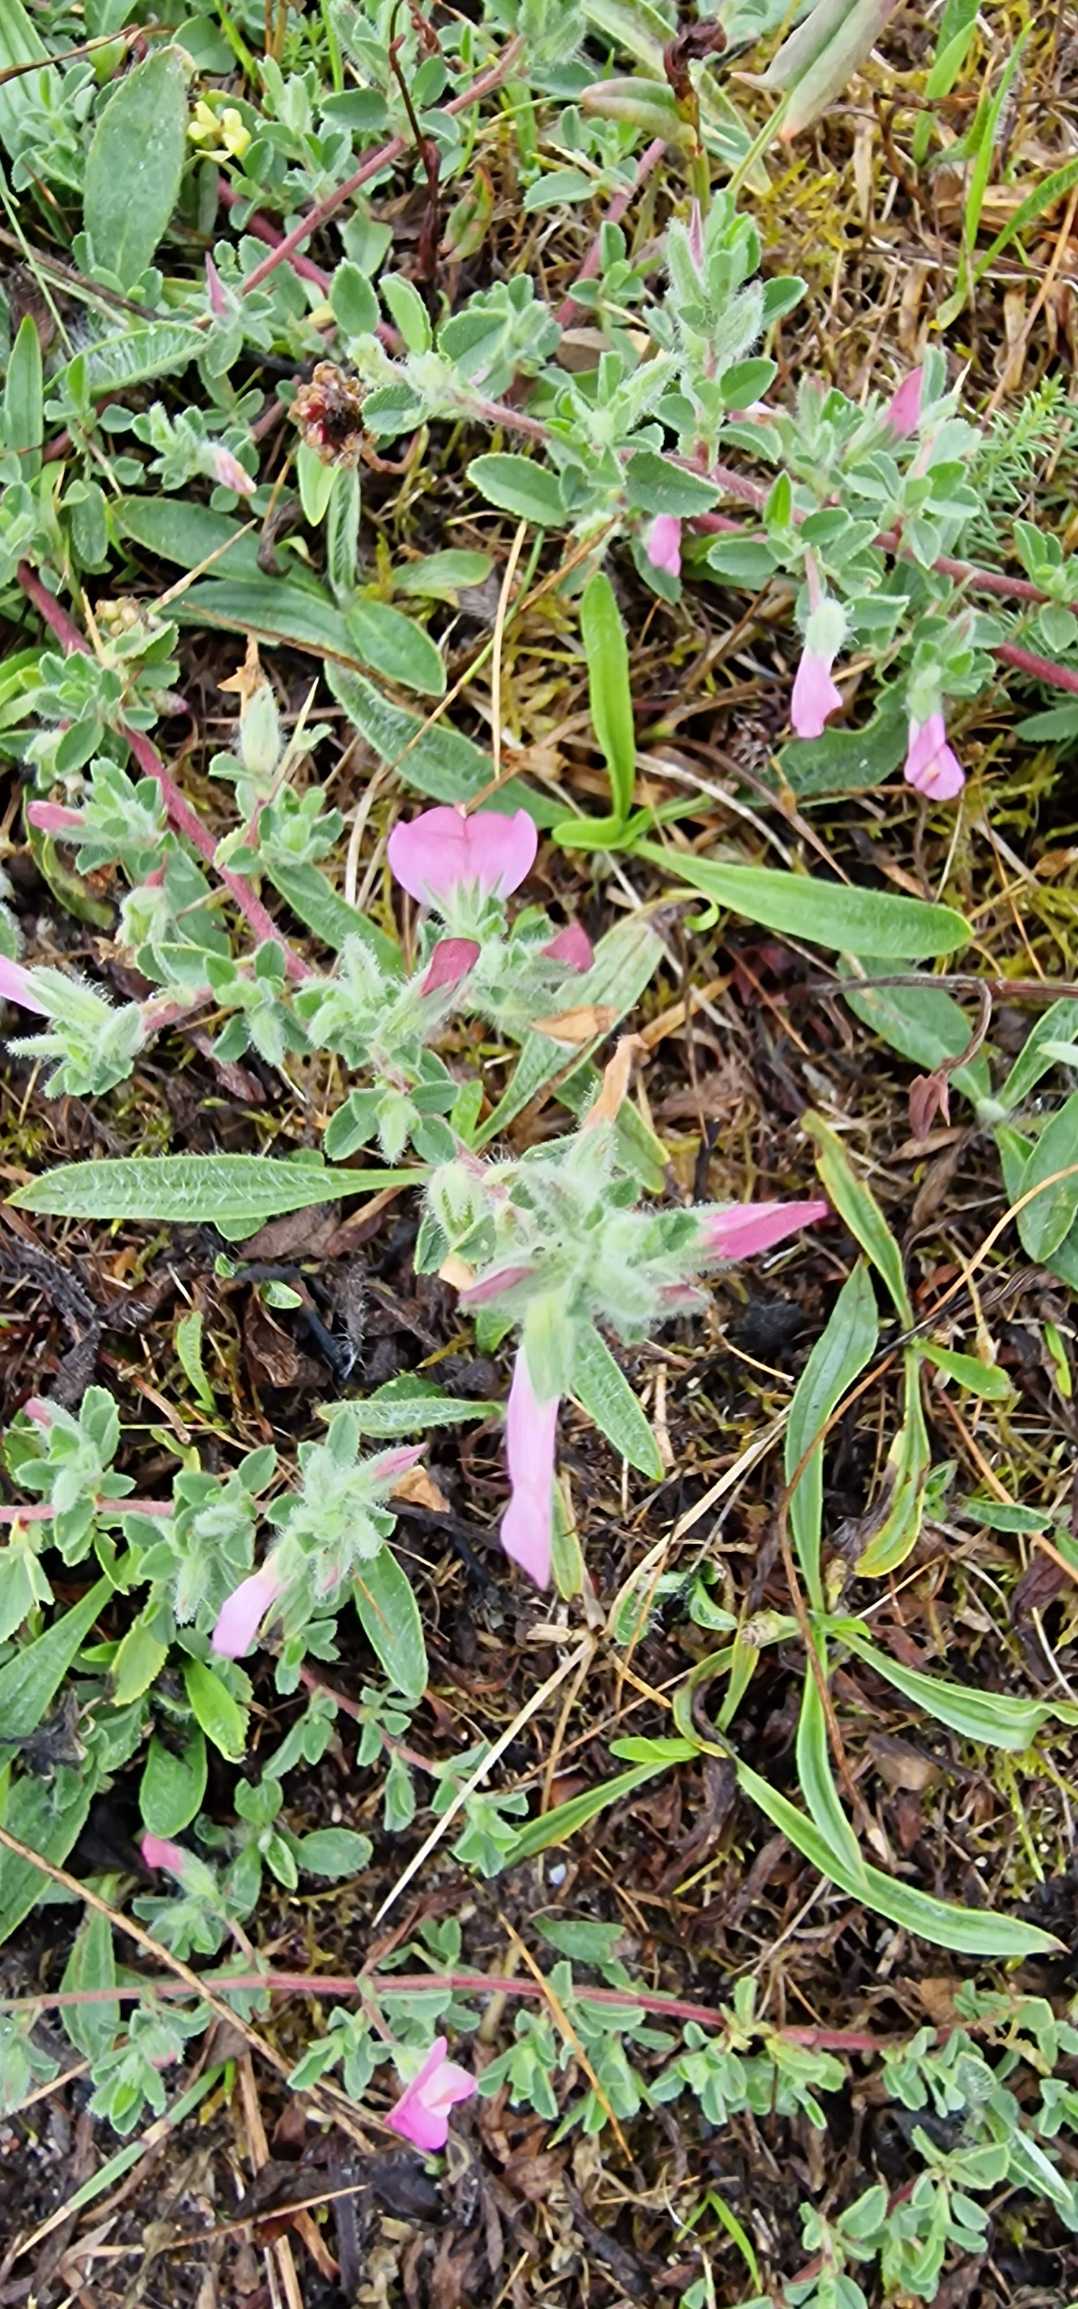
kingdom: Plantae
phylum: Tracheophyta
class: Magnoliopsida
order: Fabales
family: Fabaceae
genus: Ononis
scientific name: Ononis spinosa
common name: Mark-krageklo
